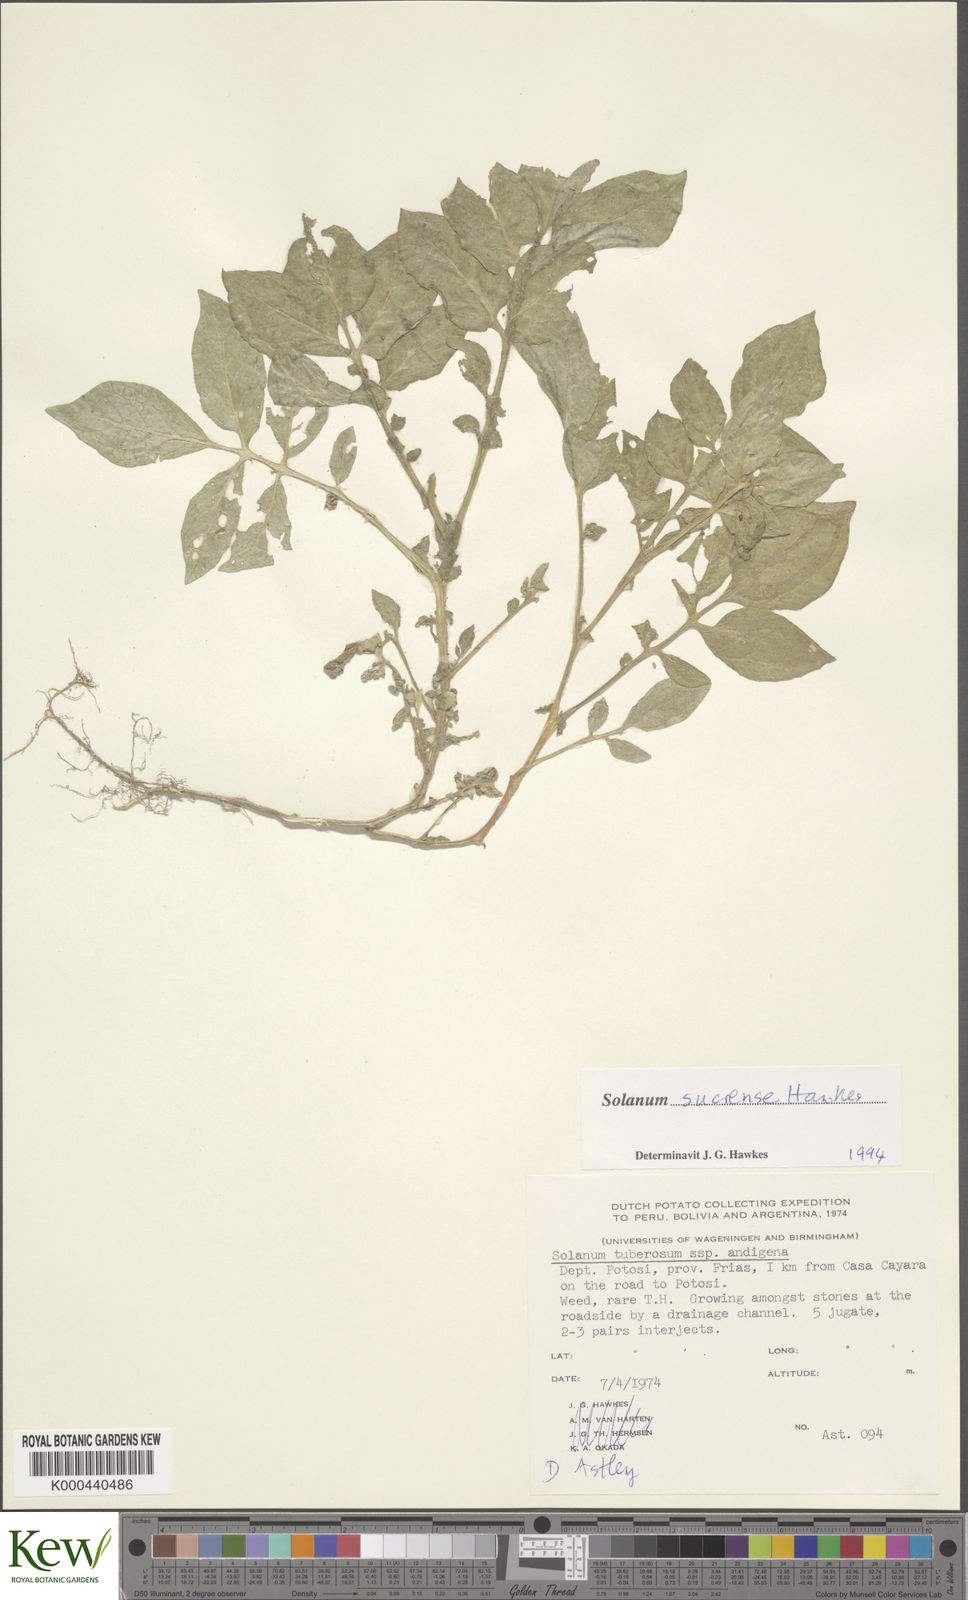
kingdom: Plantae
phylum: Tracheophyta
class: Magnoliopsida
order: Solanales
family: Solanaceae
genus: Solanum
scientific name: Solanum brevicaule
